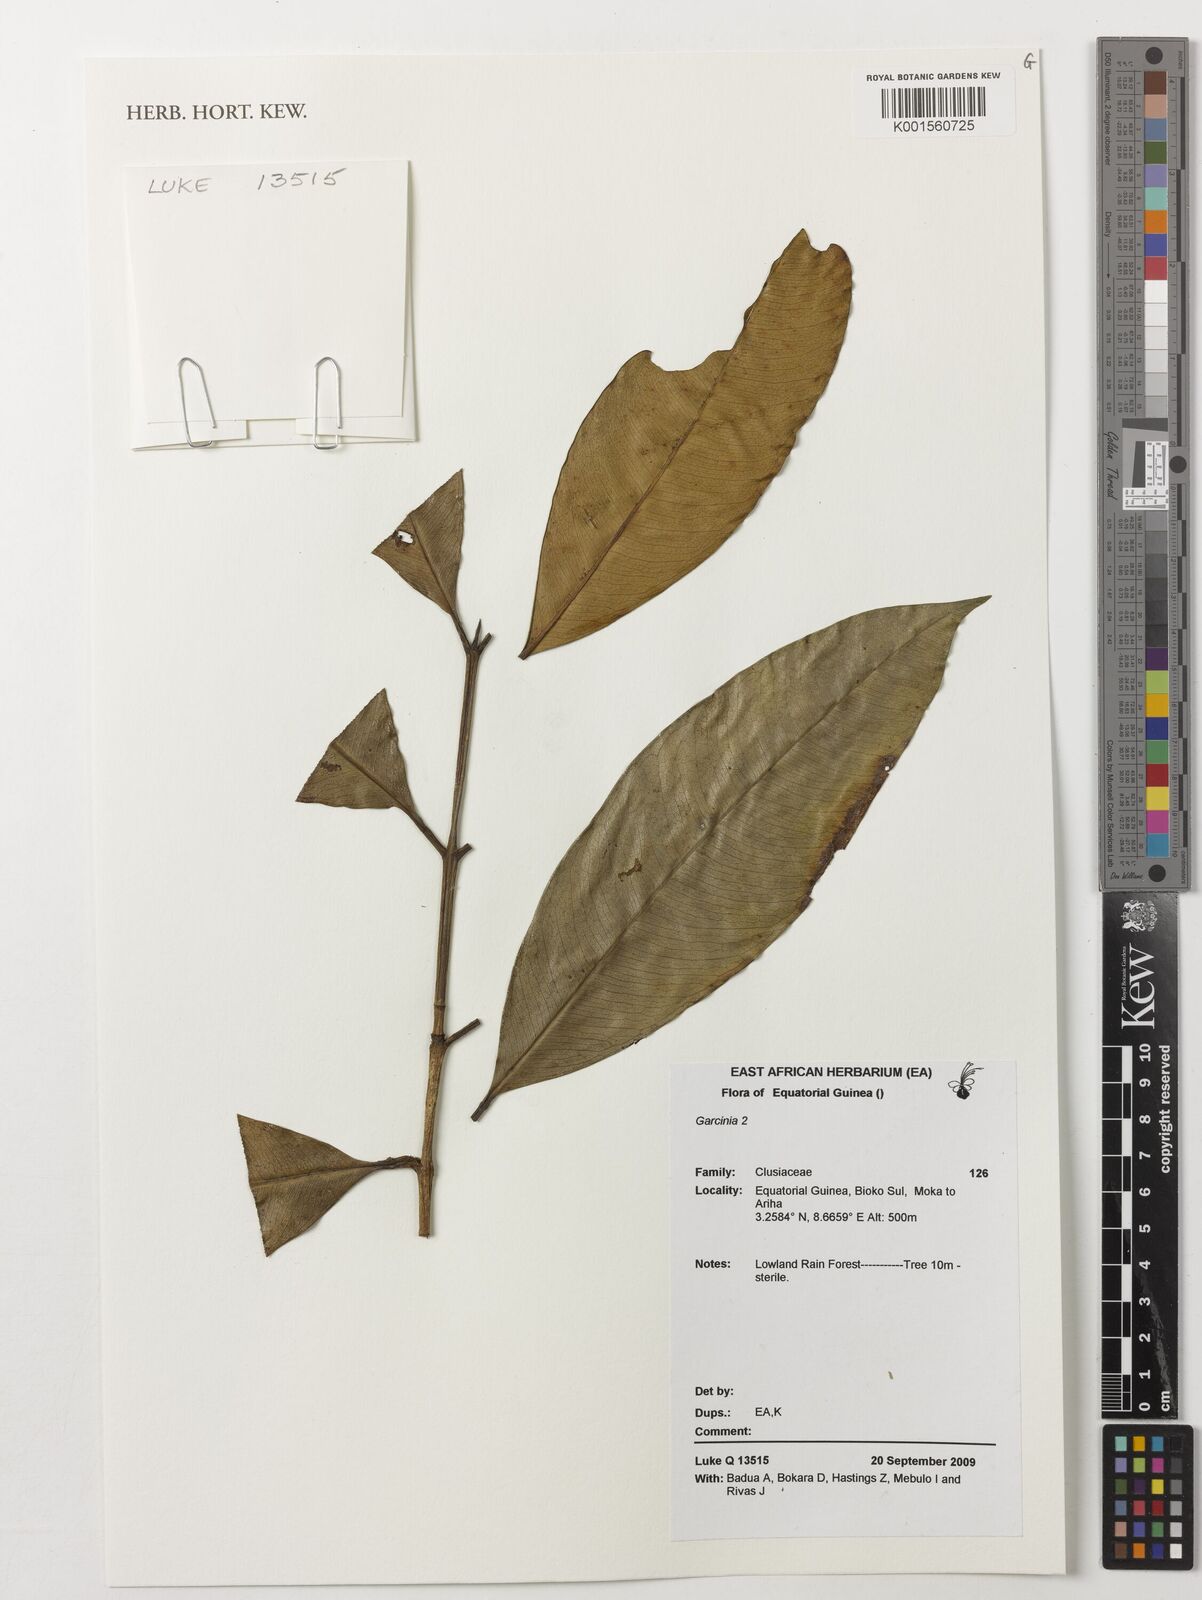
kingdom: Plantae
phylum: Tracheophyta
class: Magnoliopsida
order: Malpighiales
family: Clusiaceae
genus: Garcinia
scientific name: Garcinia
